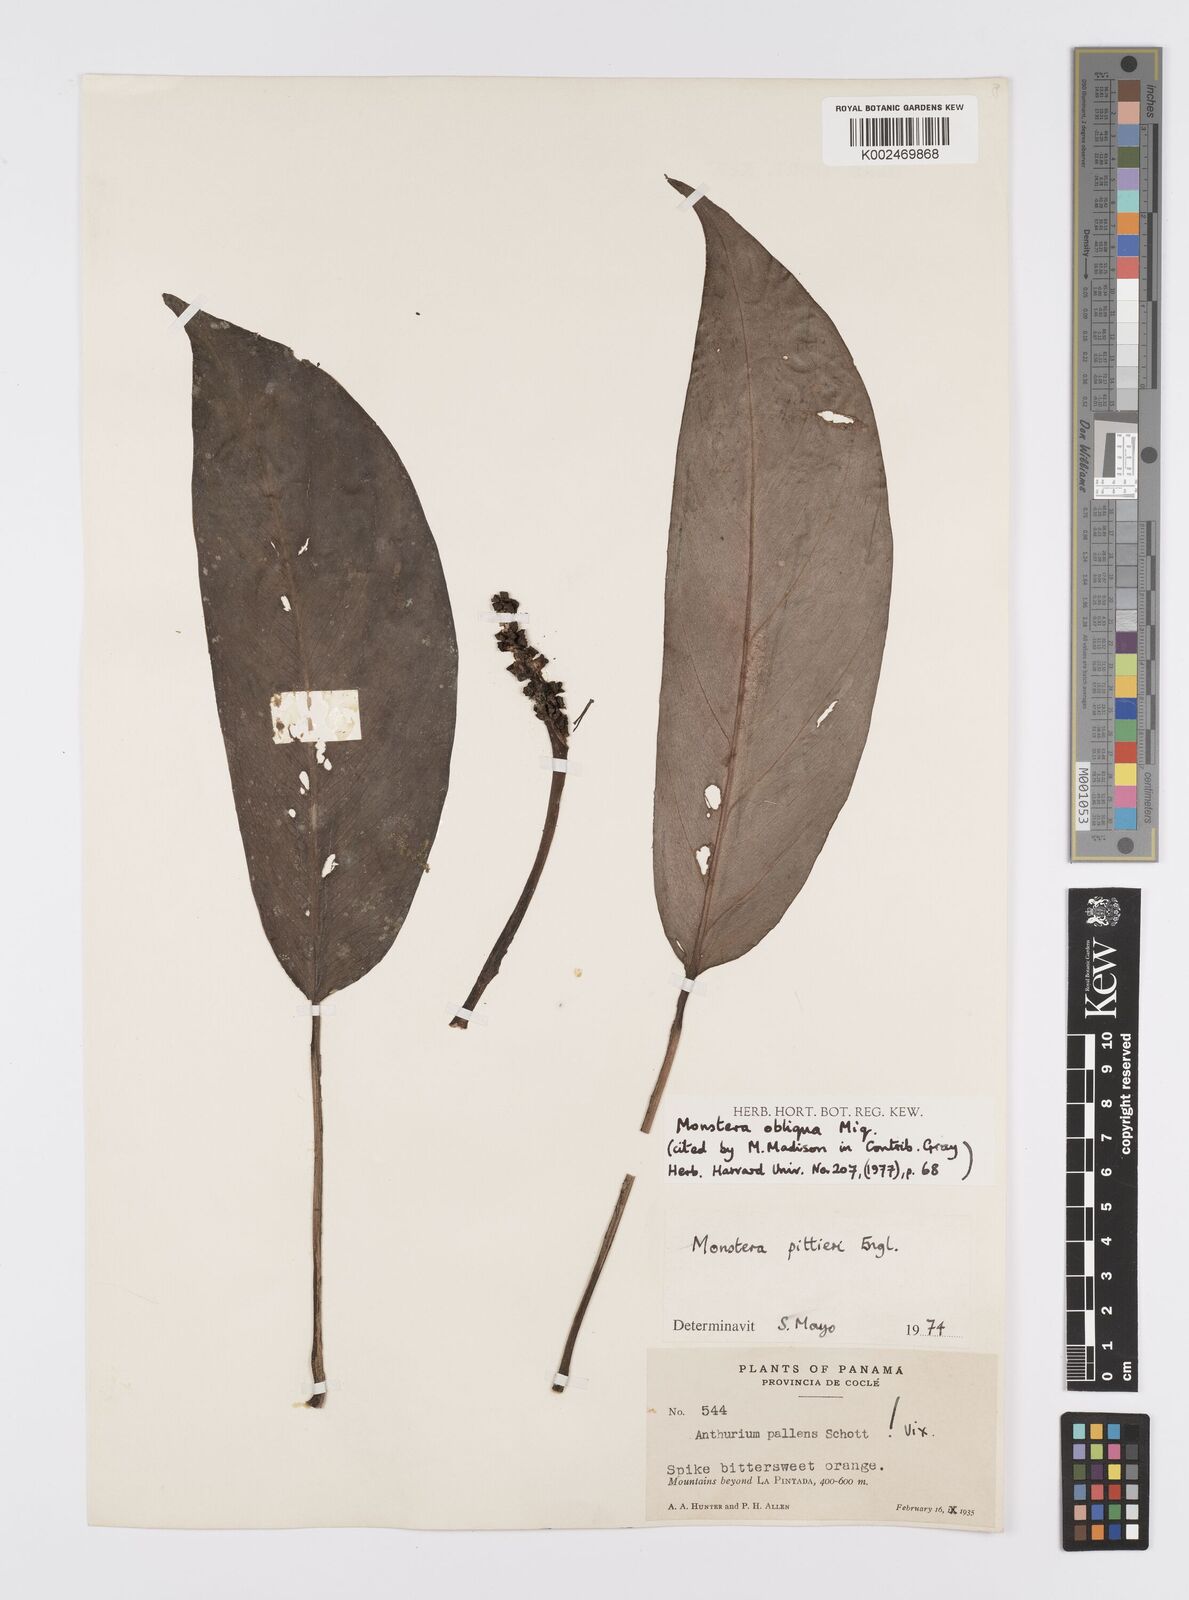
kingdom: Plantae
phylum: Tracheophyta
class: Liliopsida
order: Alismatales
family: Araceae
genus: Monstera
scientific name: Monstera obliqua
